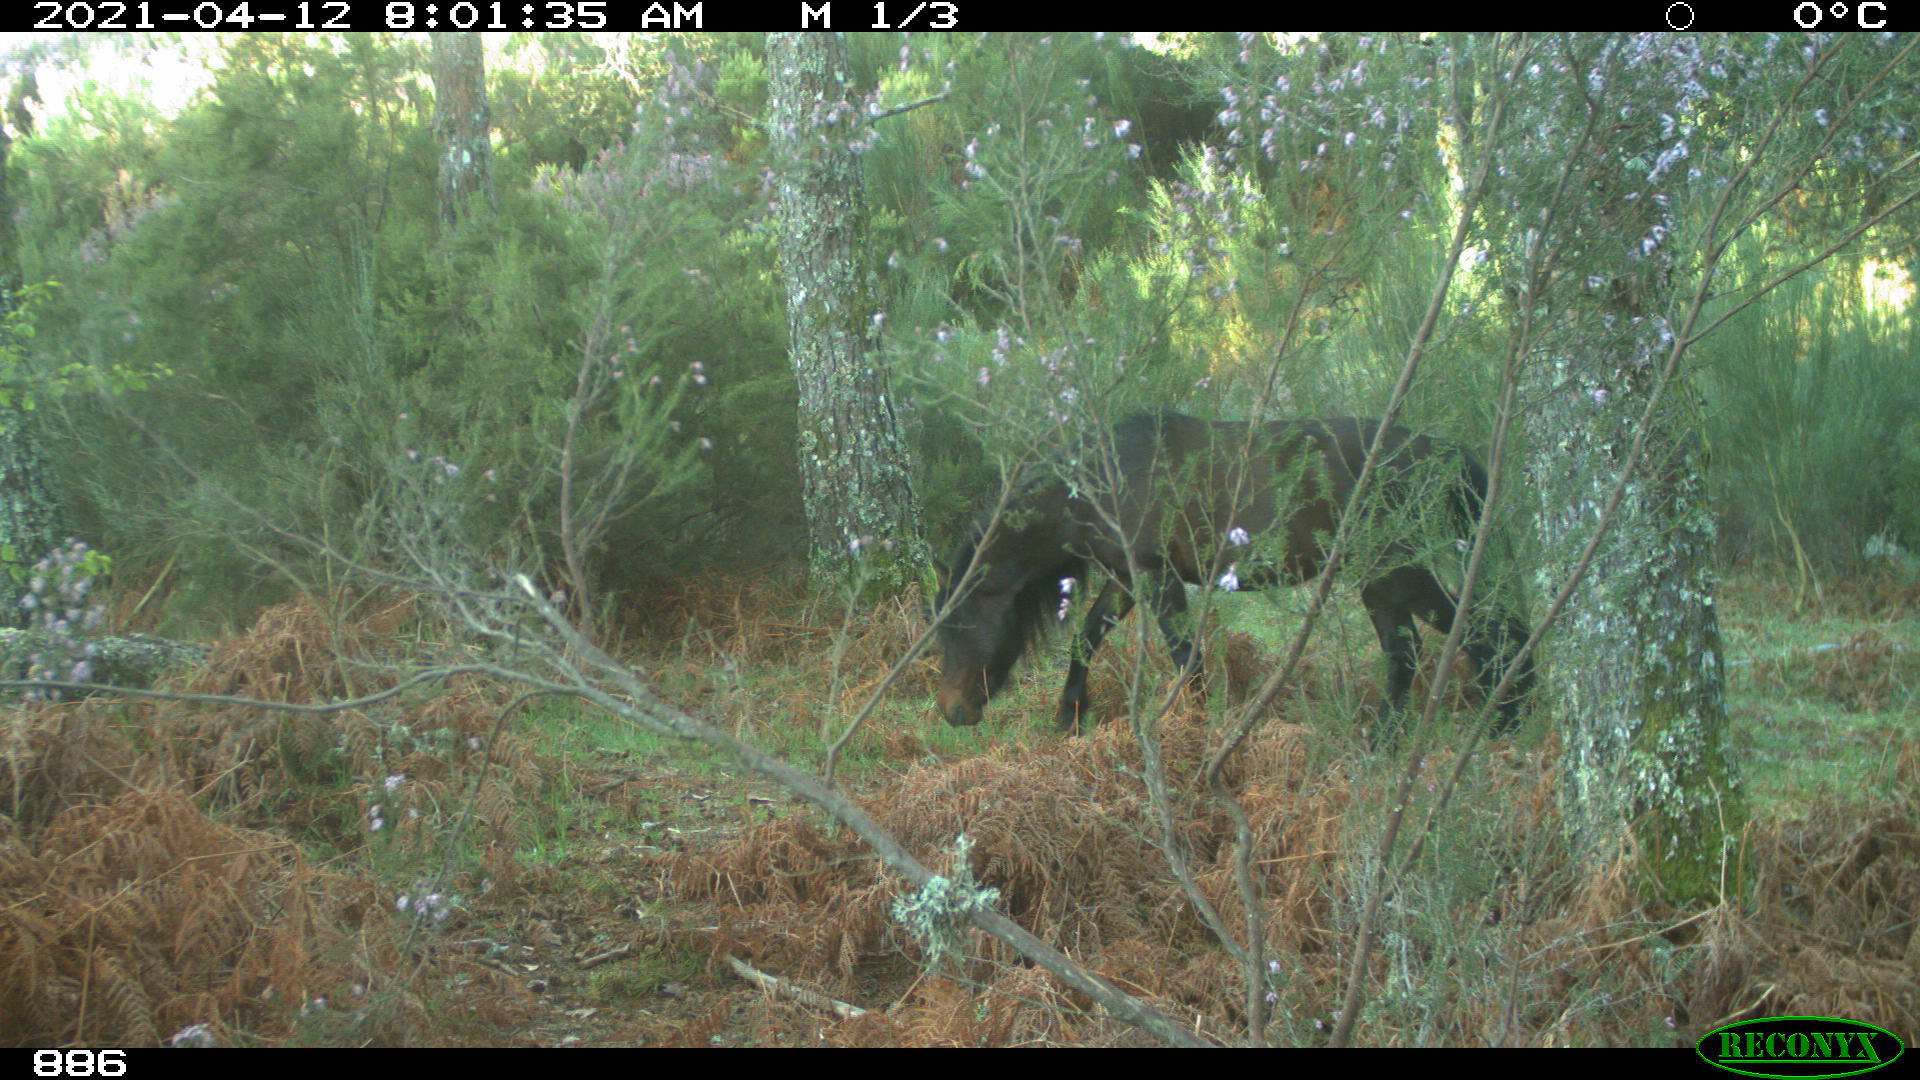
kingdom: Animalia
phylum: Chordata
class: Mammalia
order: Perissodactyla
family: Equidae
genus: Equus
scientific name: Equus caballus
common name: Horse
